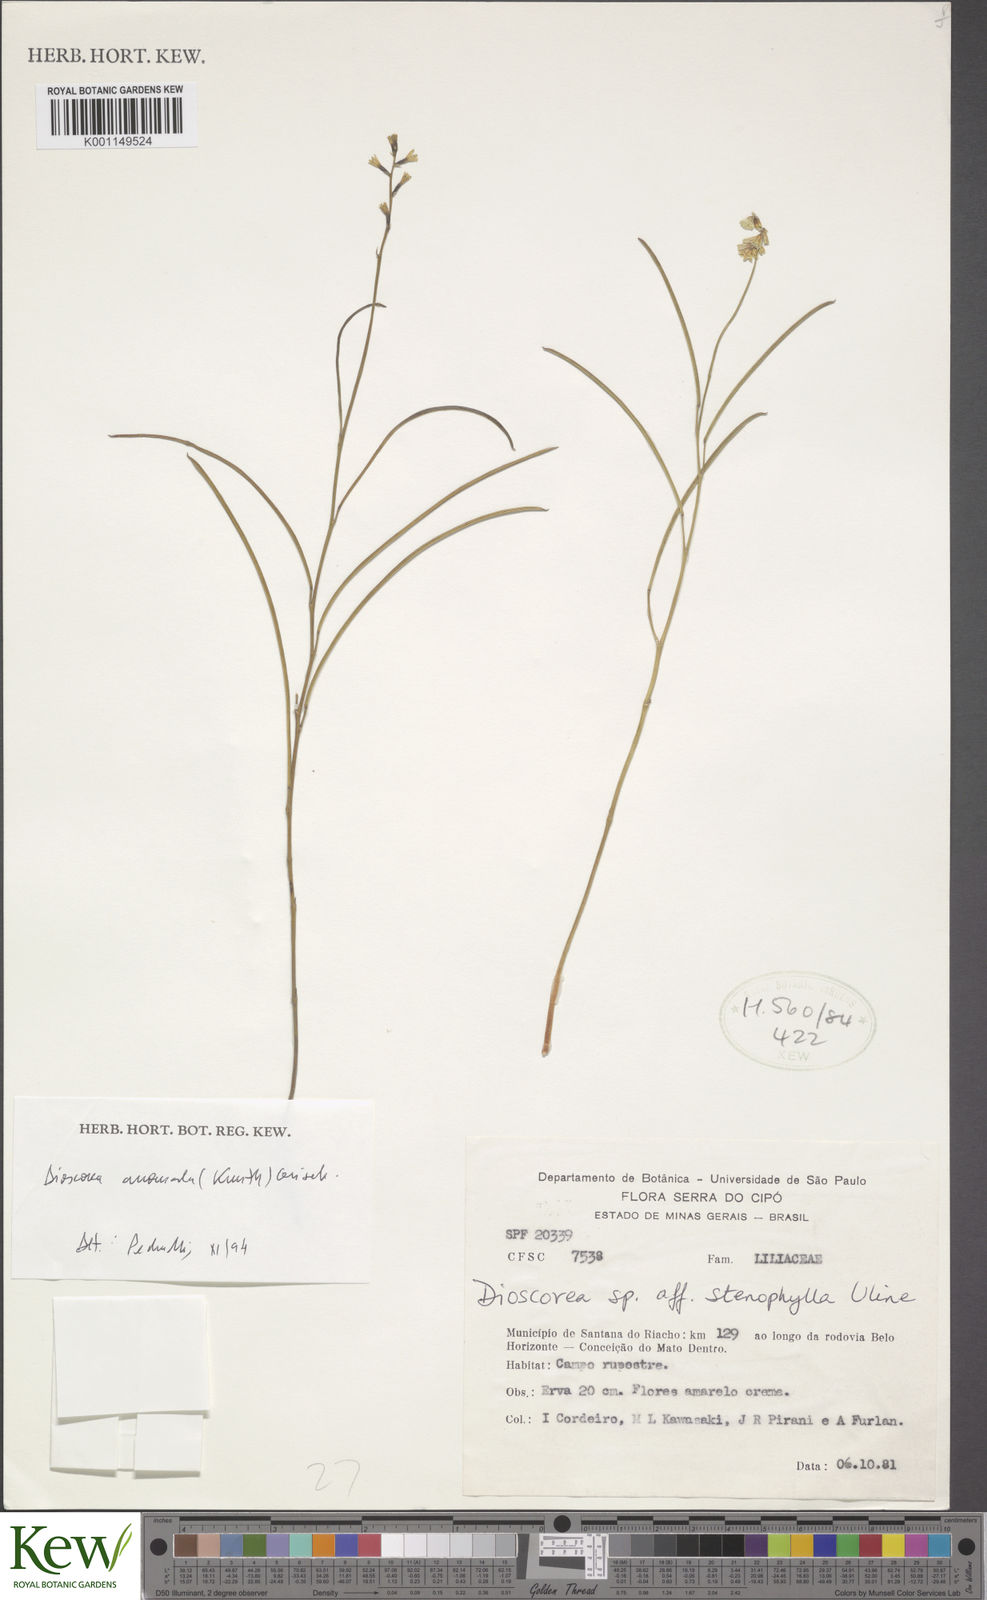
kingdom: Plantae
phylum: Tracheophyta
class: Liliopsida
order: Dioscoreales
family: Dioscoreaceae
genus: Dioscorea
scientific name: Dioscorea anomala
